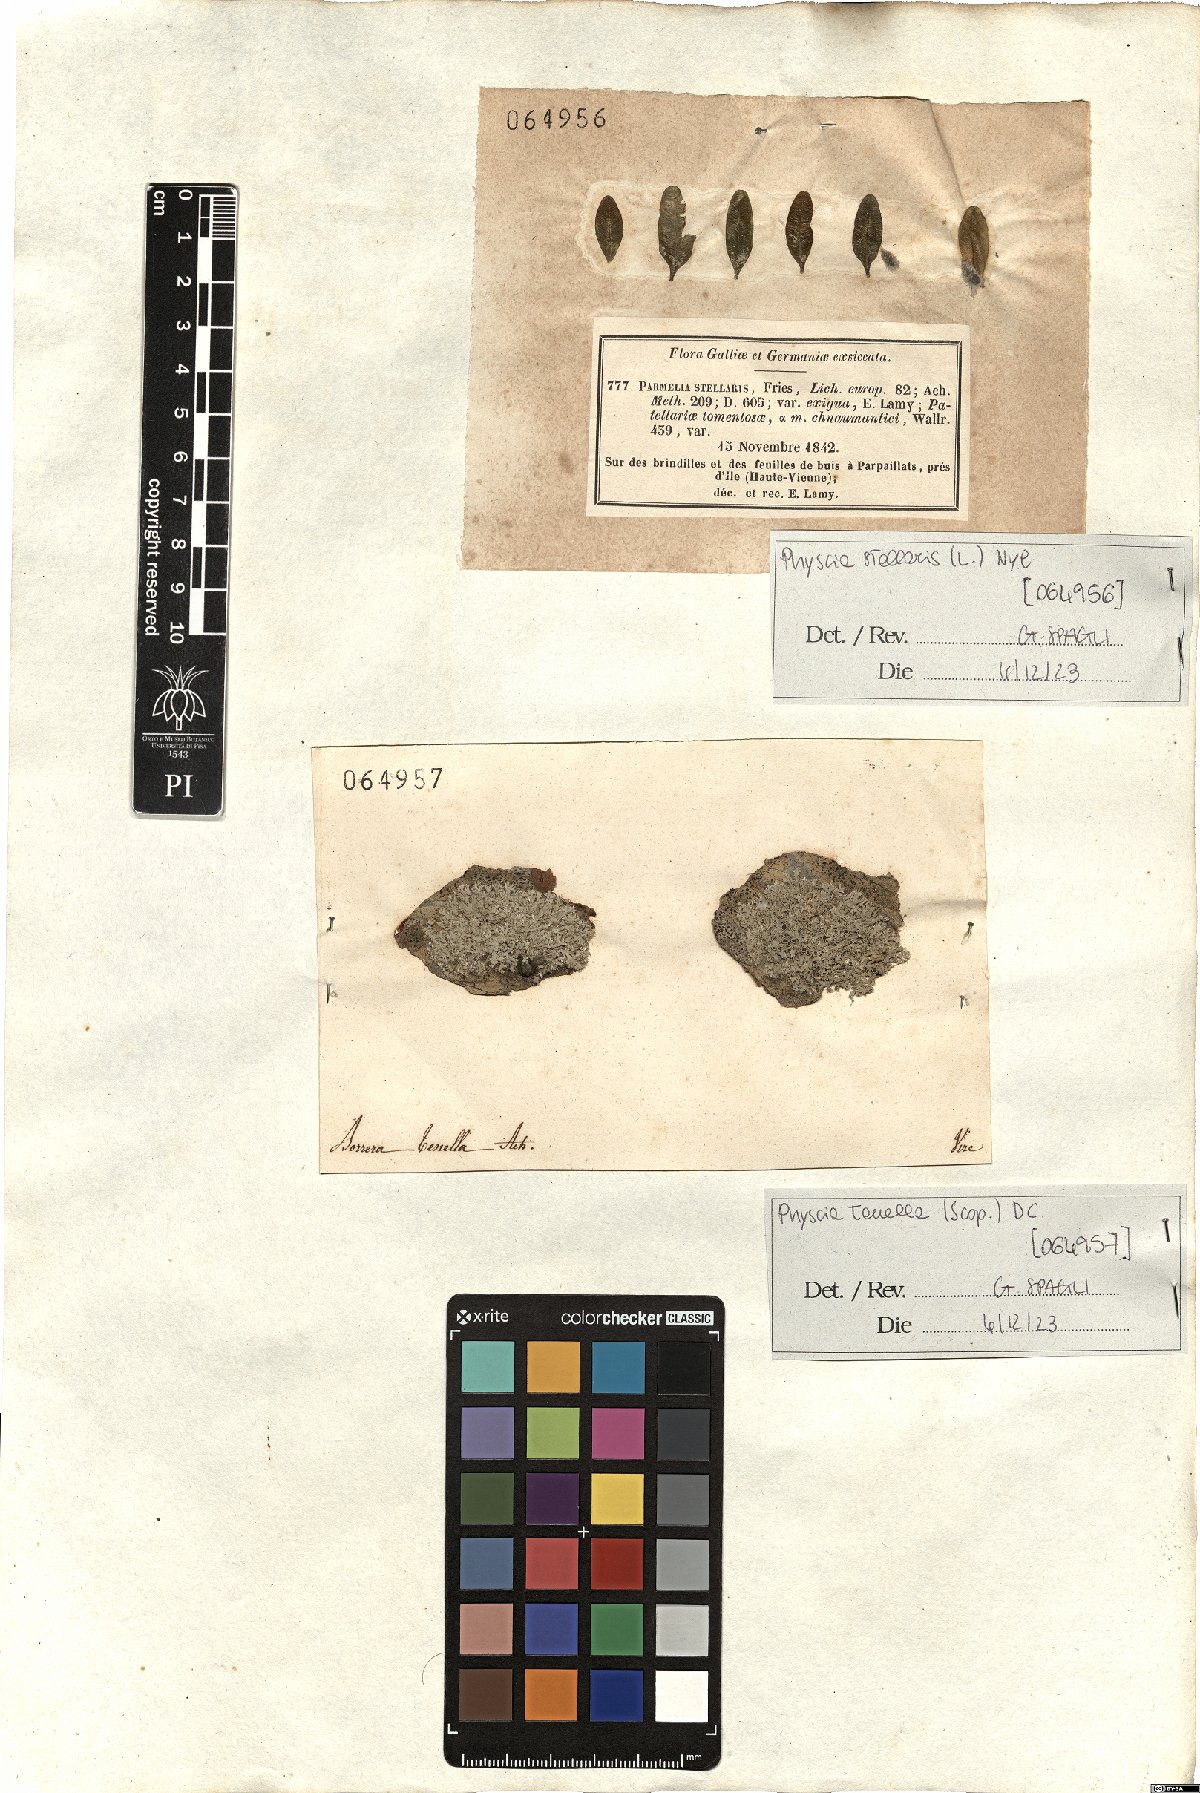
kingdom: Fungi
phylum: Ascomycota
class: Lecanoromycetes
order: Caliciales
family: Physciaceae
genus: Physcia
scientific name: Physcia stellaris
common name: Star rosette lichen
